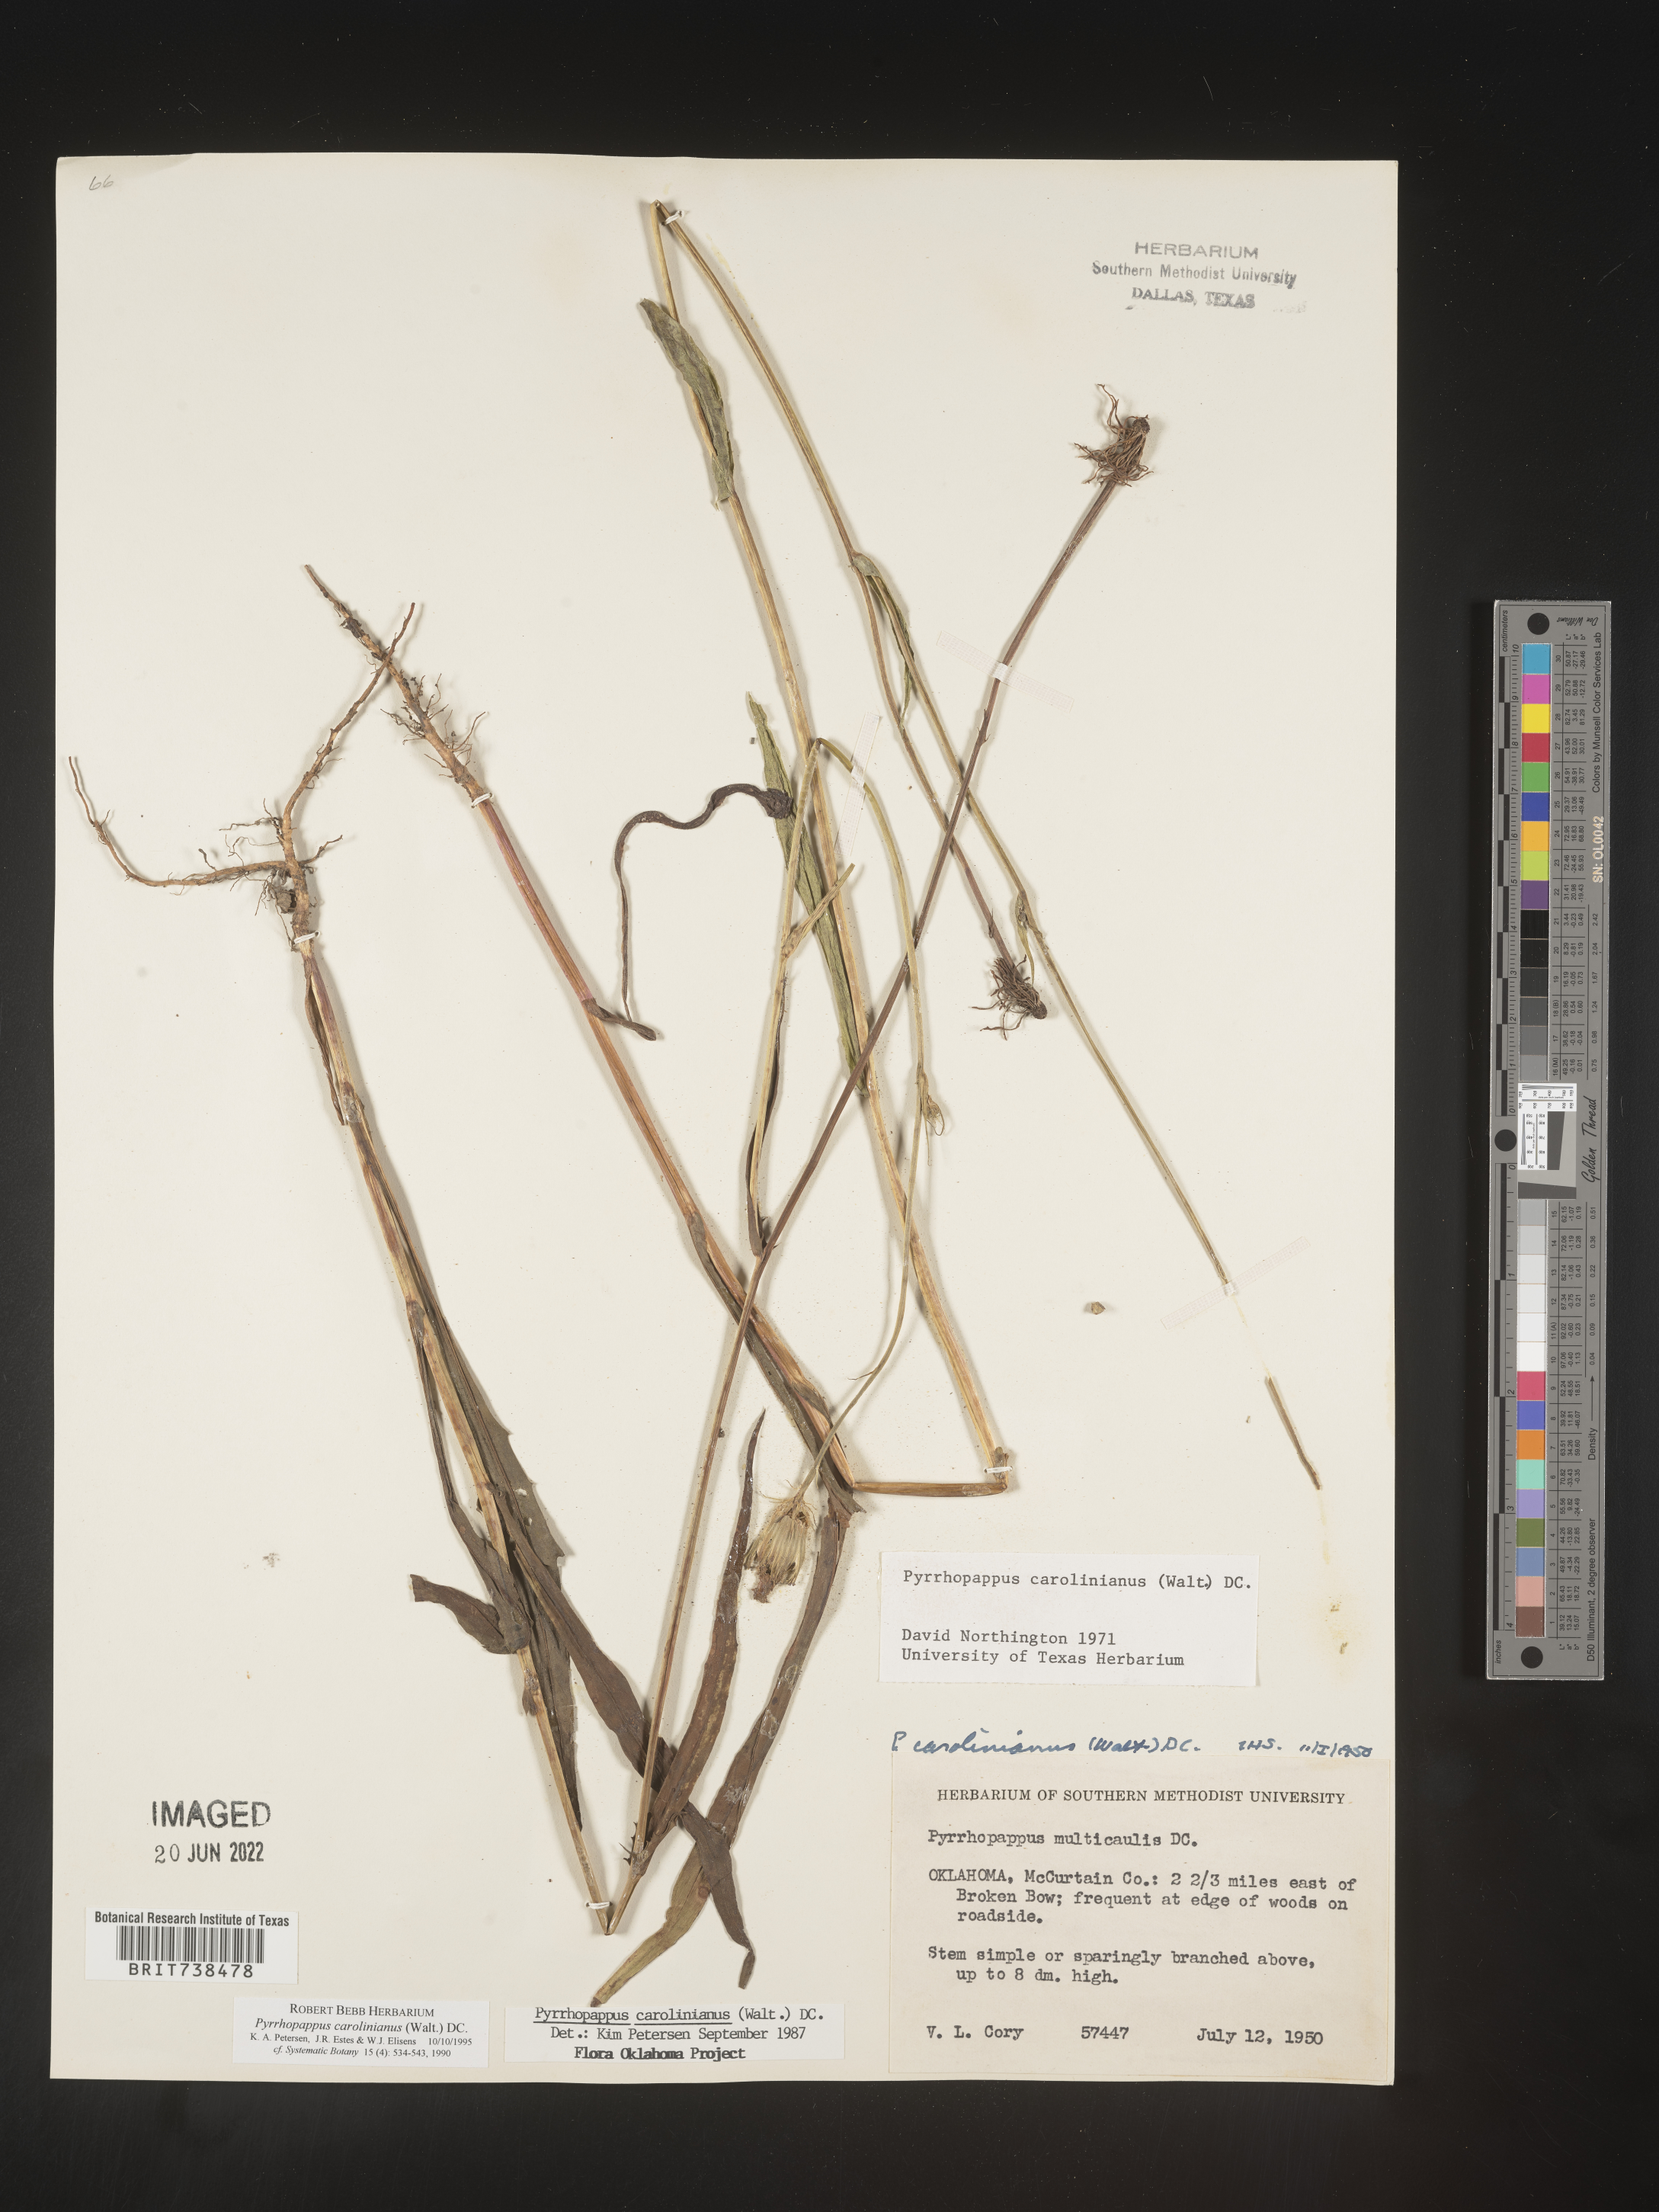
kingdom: Plantae
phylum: Tracheophyta
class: Magnoliopsida
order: Asterales
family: Asteraceae
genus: Pyrrhopappus
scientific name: Pyrrhopappus carolinianus
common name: Carolina desert-chicory
